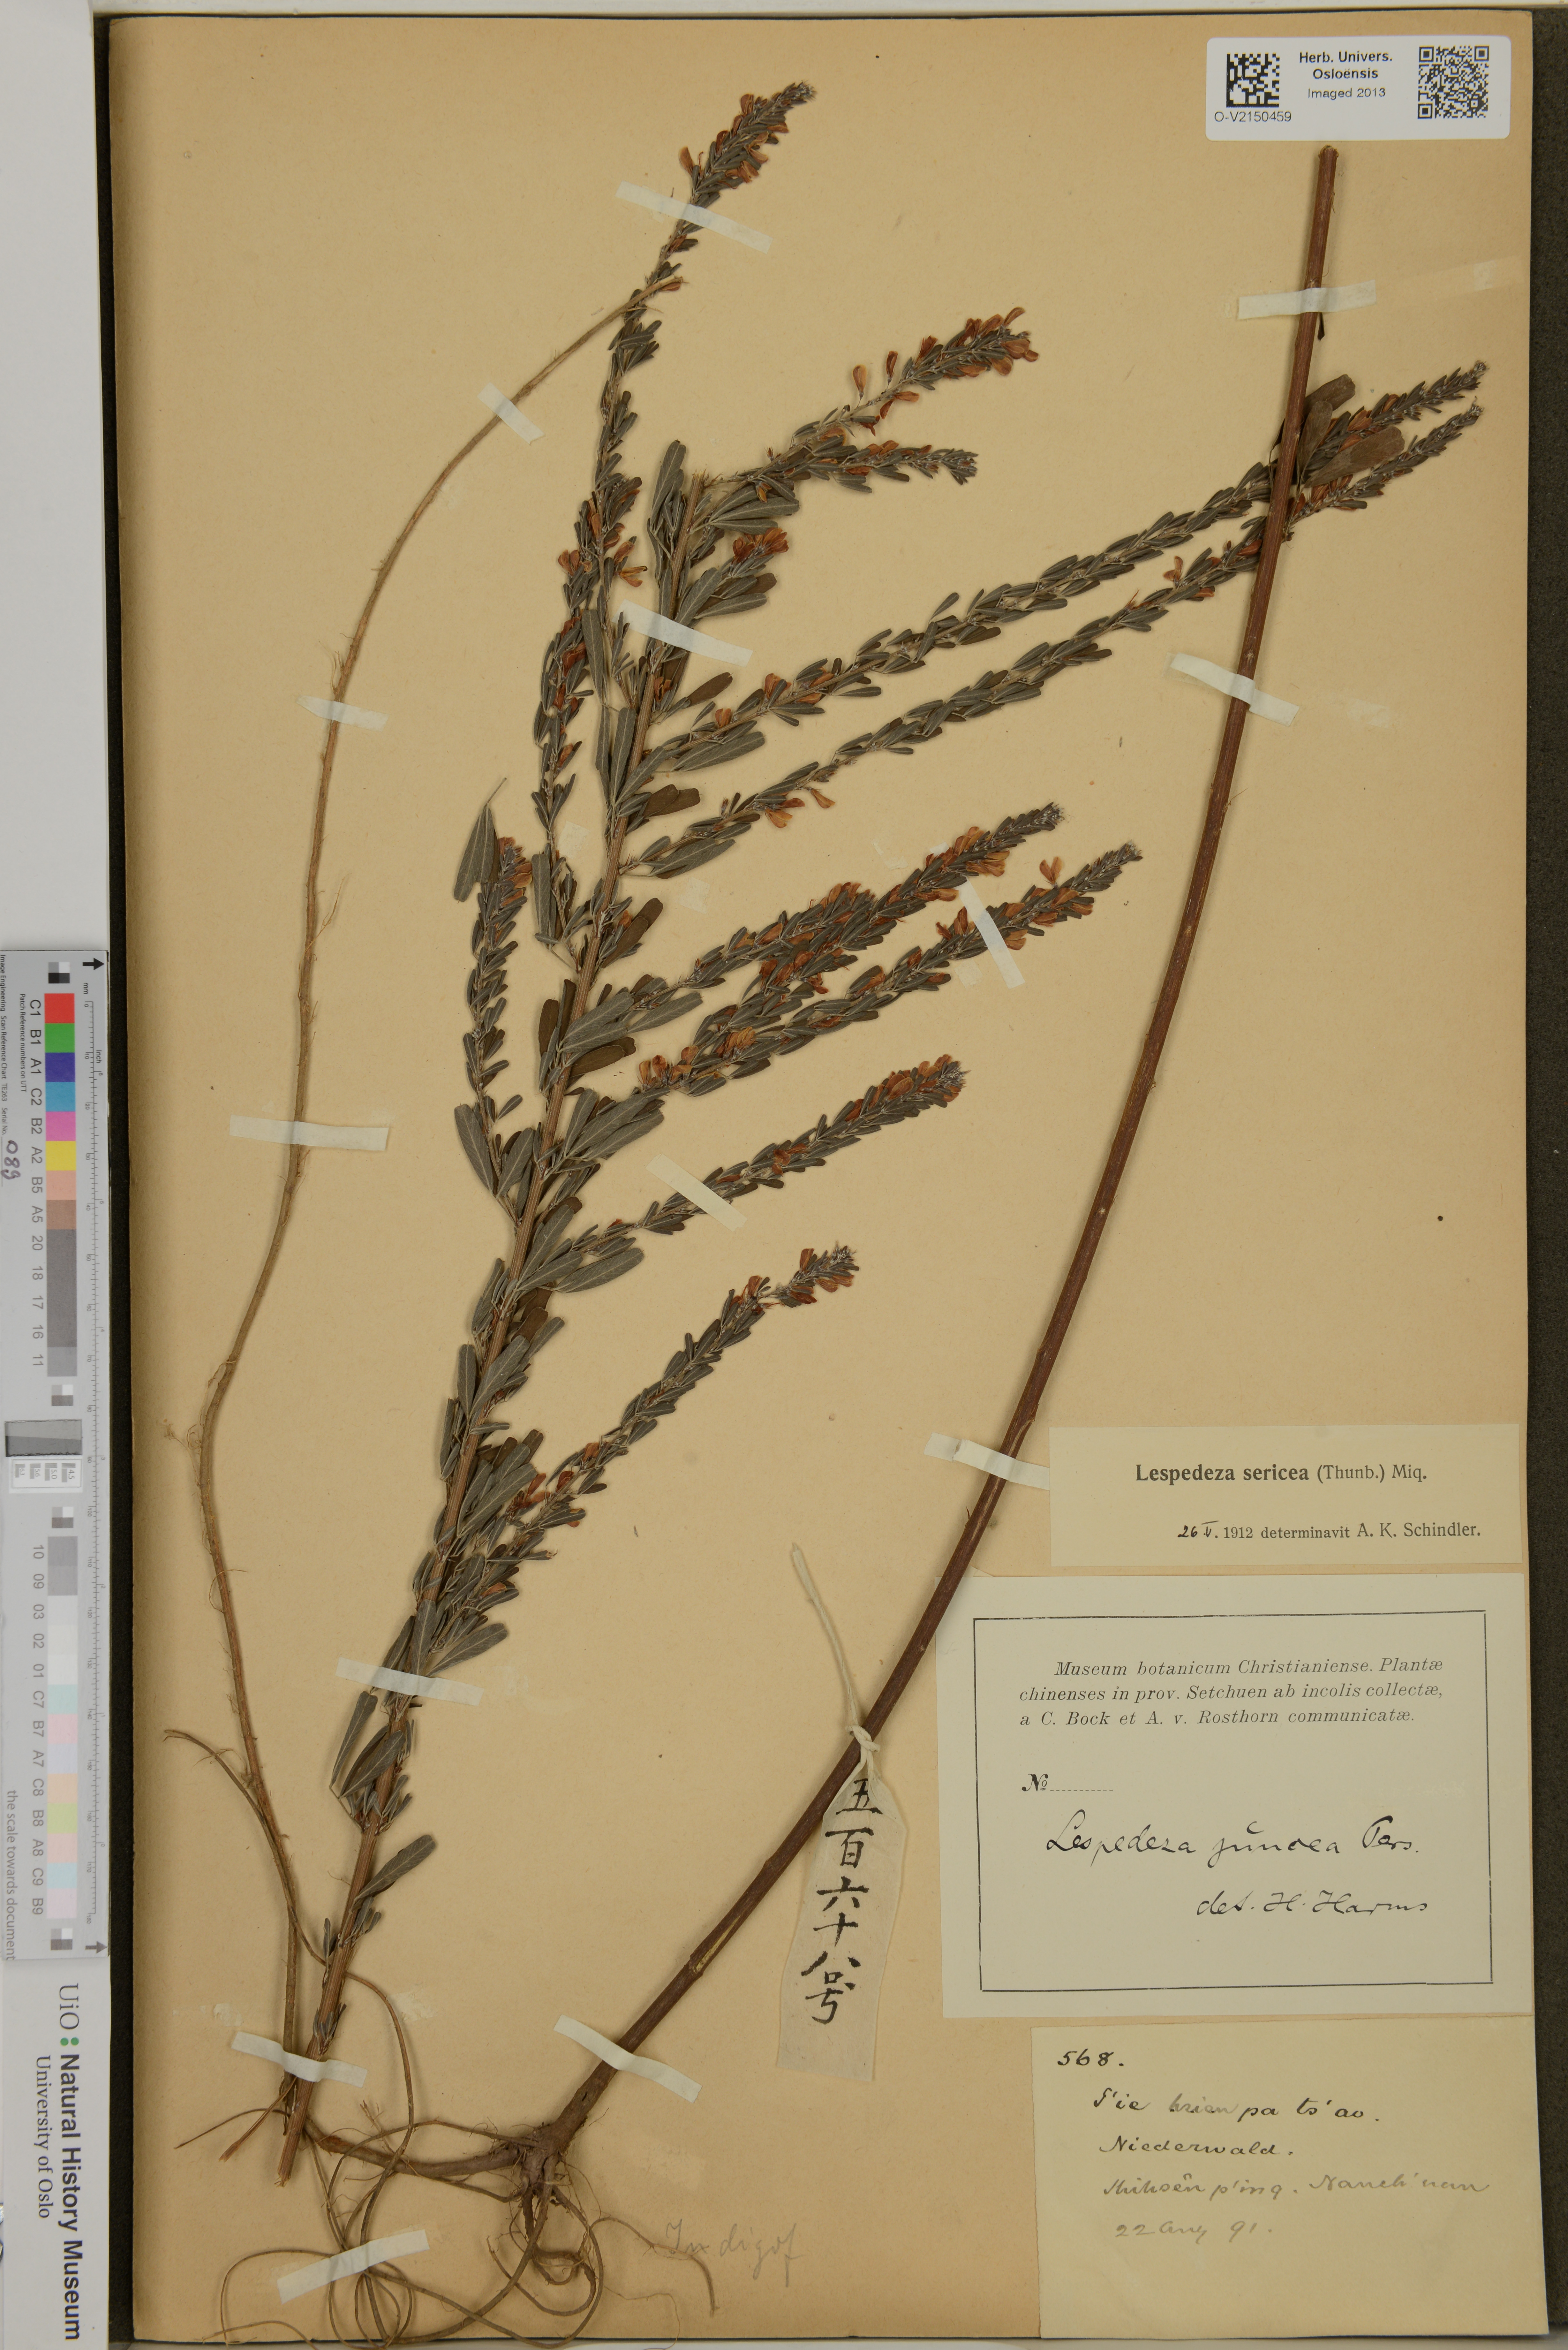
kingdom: Plantae
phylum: Tracheophyta
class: Magnoliopsida
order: Fabales
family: Fabaceae
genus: Lespedeza
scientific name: Lespedeza
